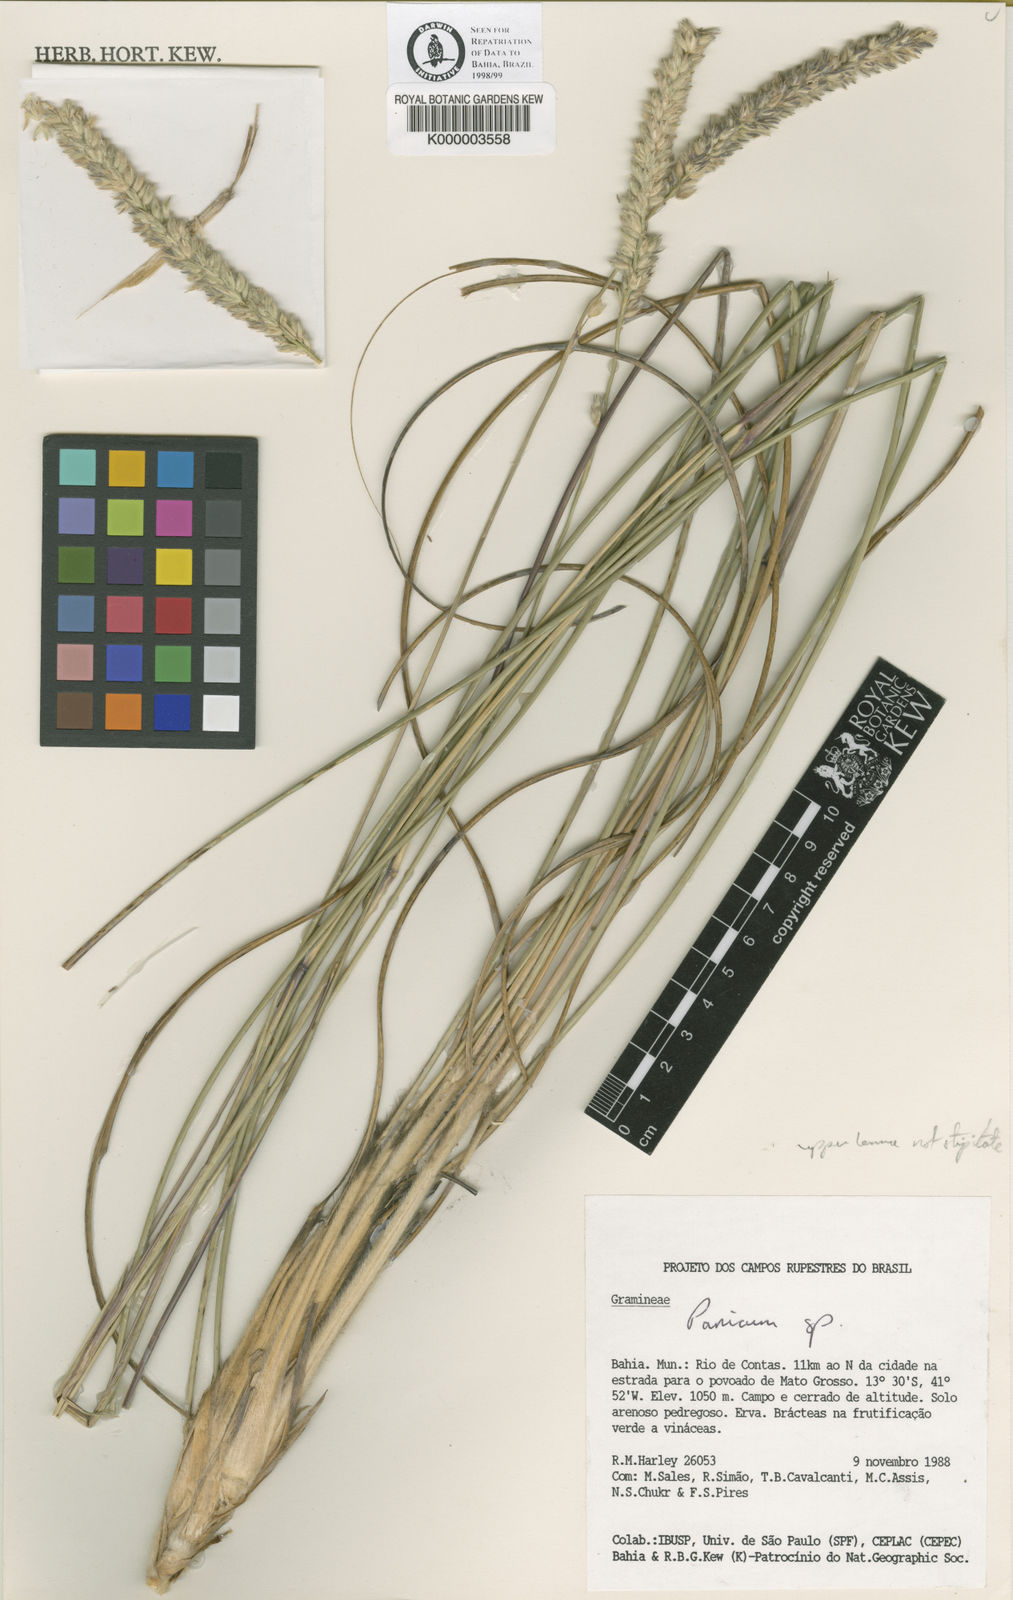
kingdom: Plantae
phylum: Tracheophyta
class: Liliopsida
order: Poales
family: Poaceae
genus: Renvoizea
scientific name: Renvoizea durifolia
